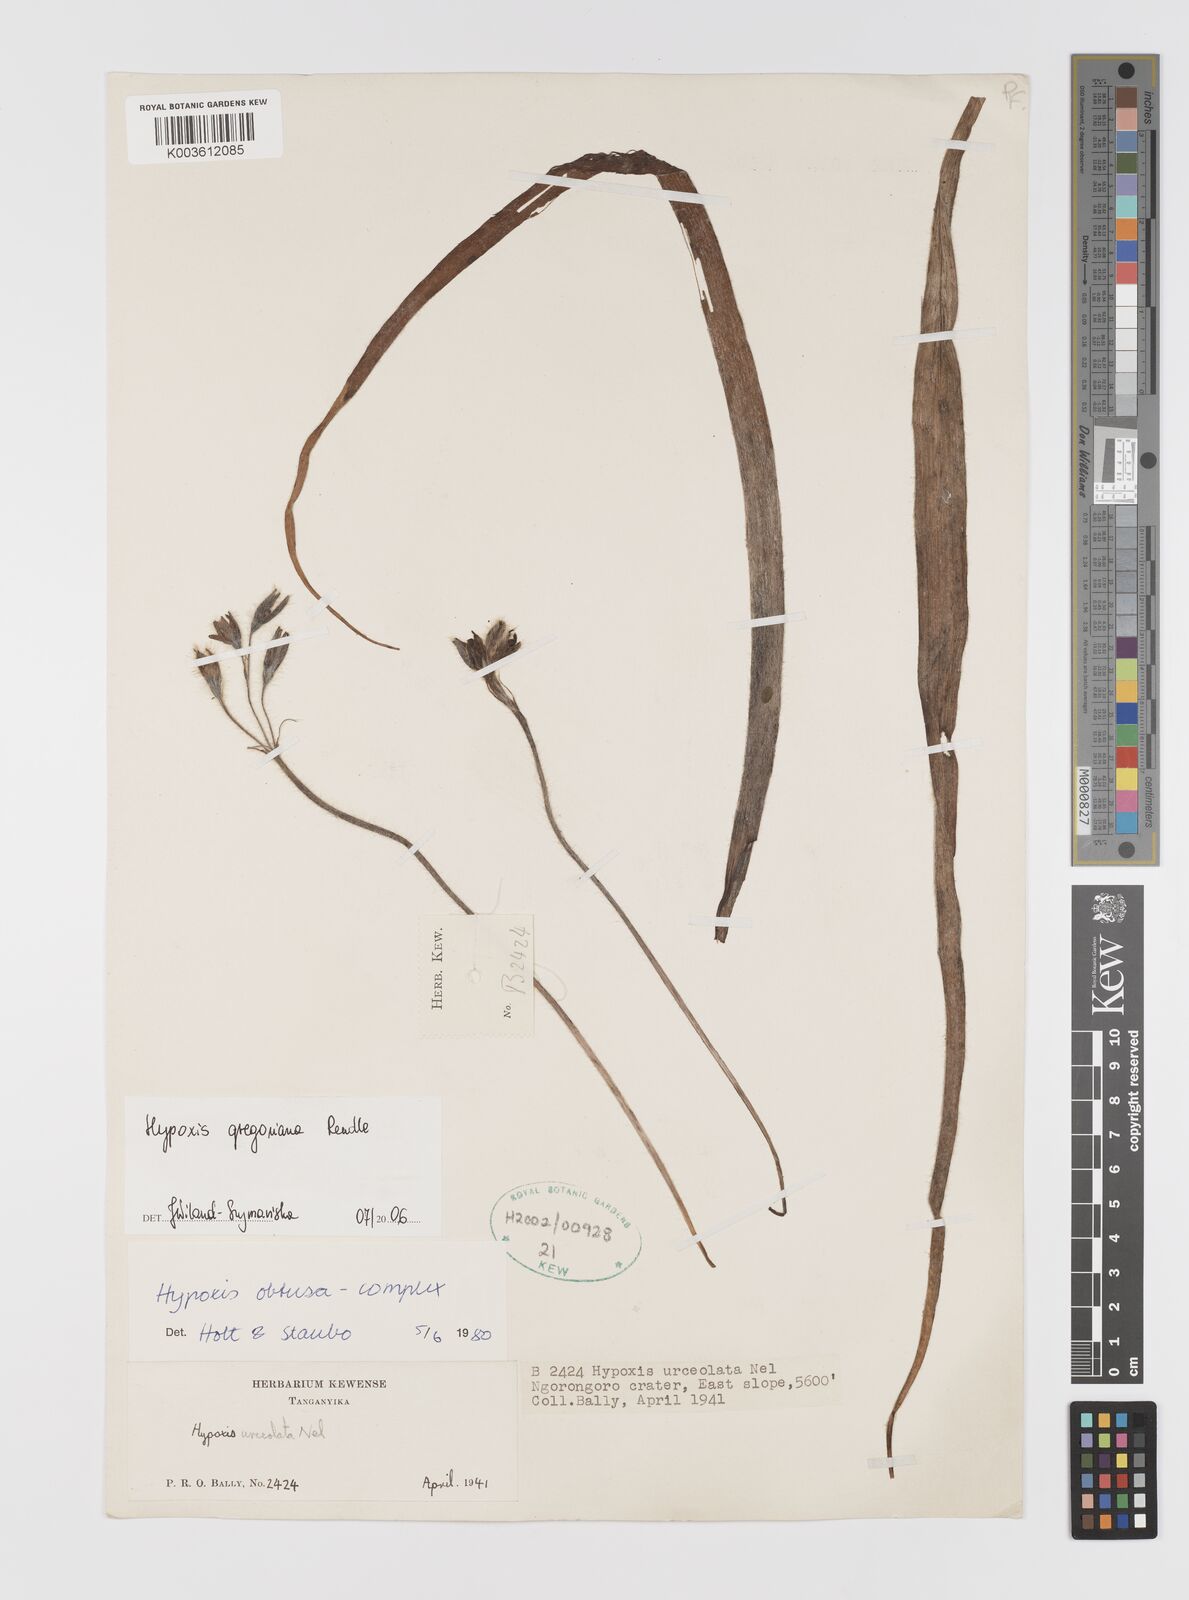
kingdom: Plantae
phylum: Tracheophyta
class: Liliopsida
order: Asparagales
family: Hypoxidaceae
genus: Hypoxis
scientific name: Hypoxis gregoriana
